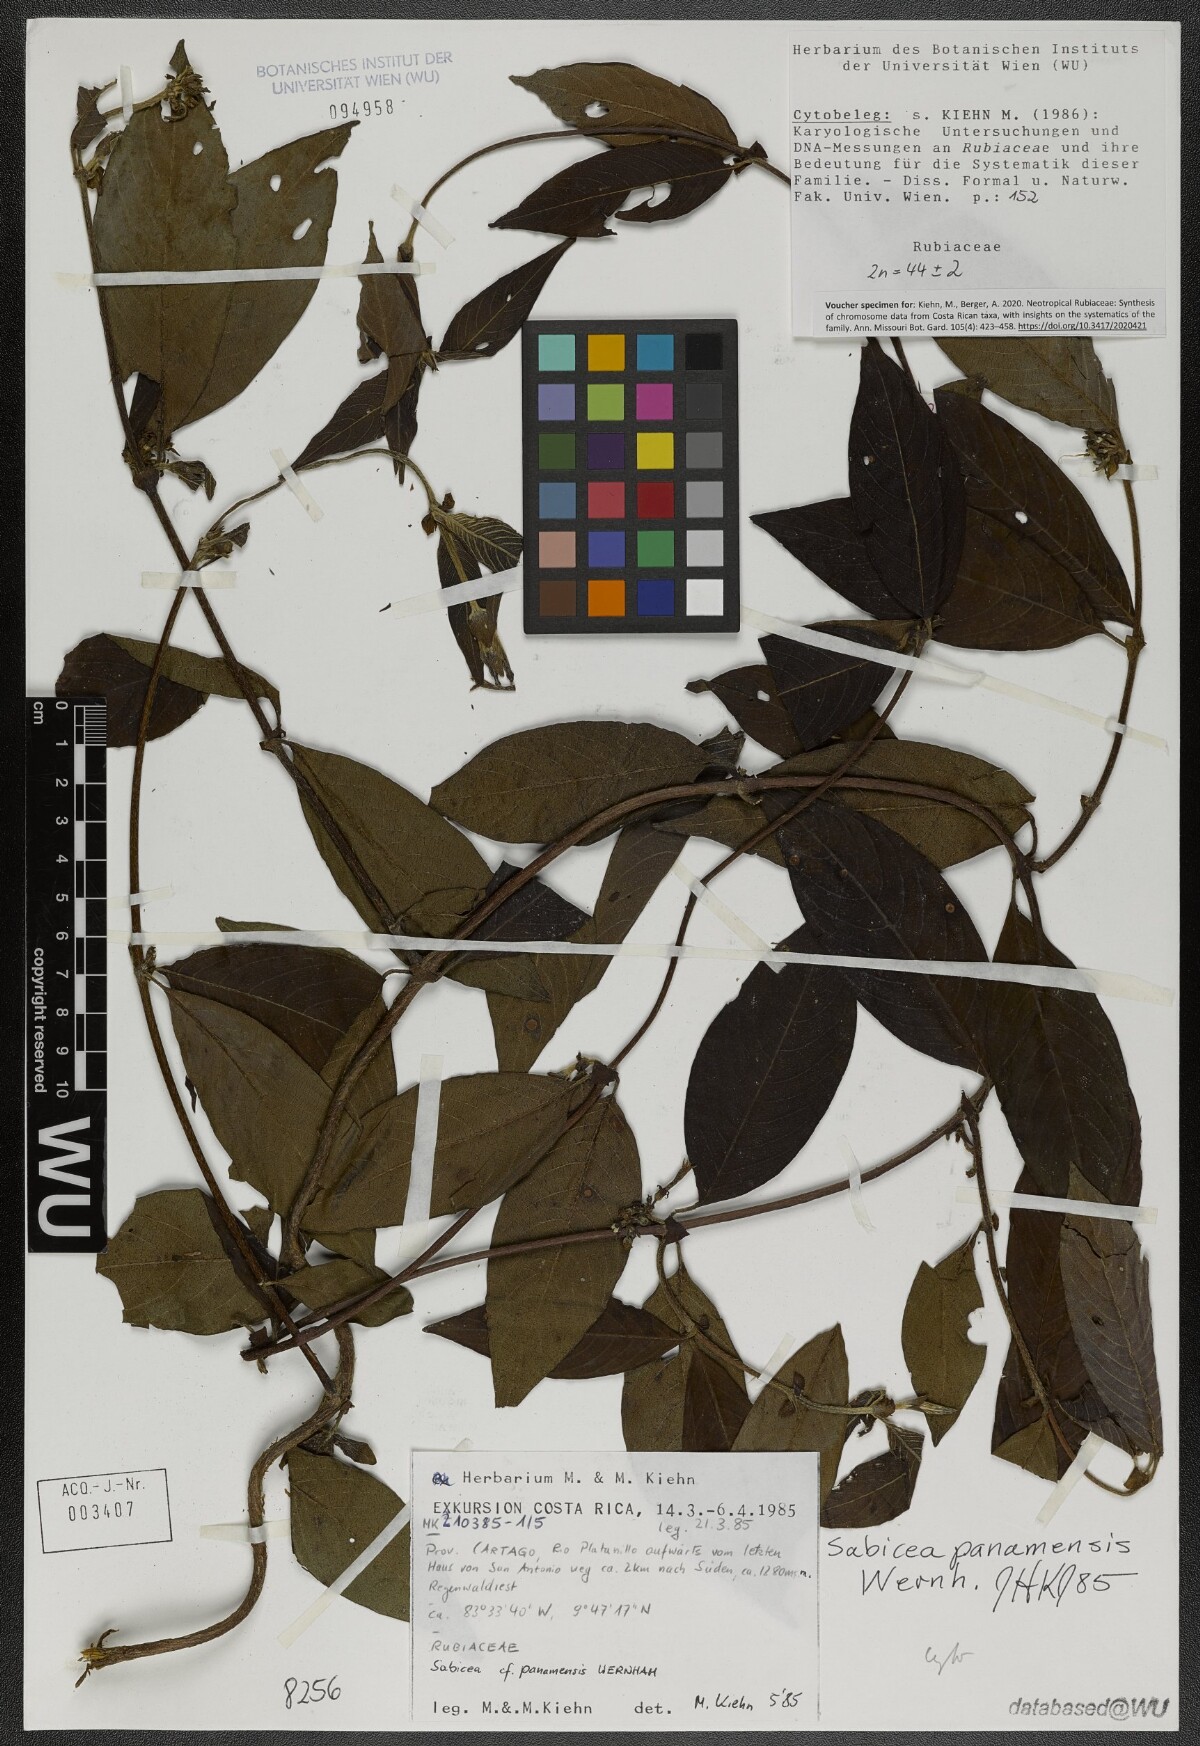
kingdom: Plantae
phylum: Tracheophyta
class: Magnoliopsida
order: Gentianales
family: Rubiaceae
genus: Sabicea
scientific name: Sabicea panamensis
